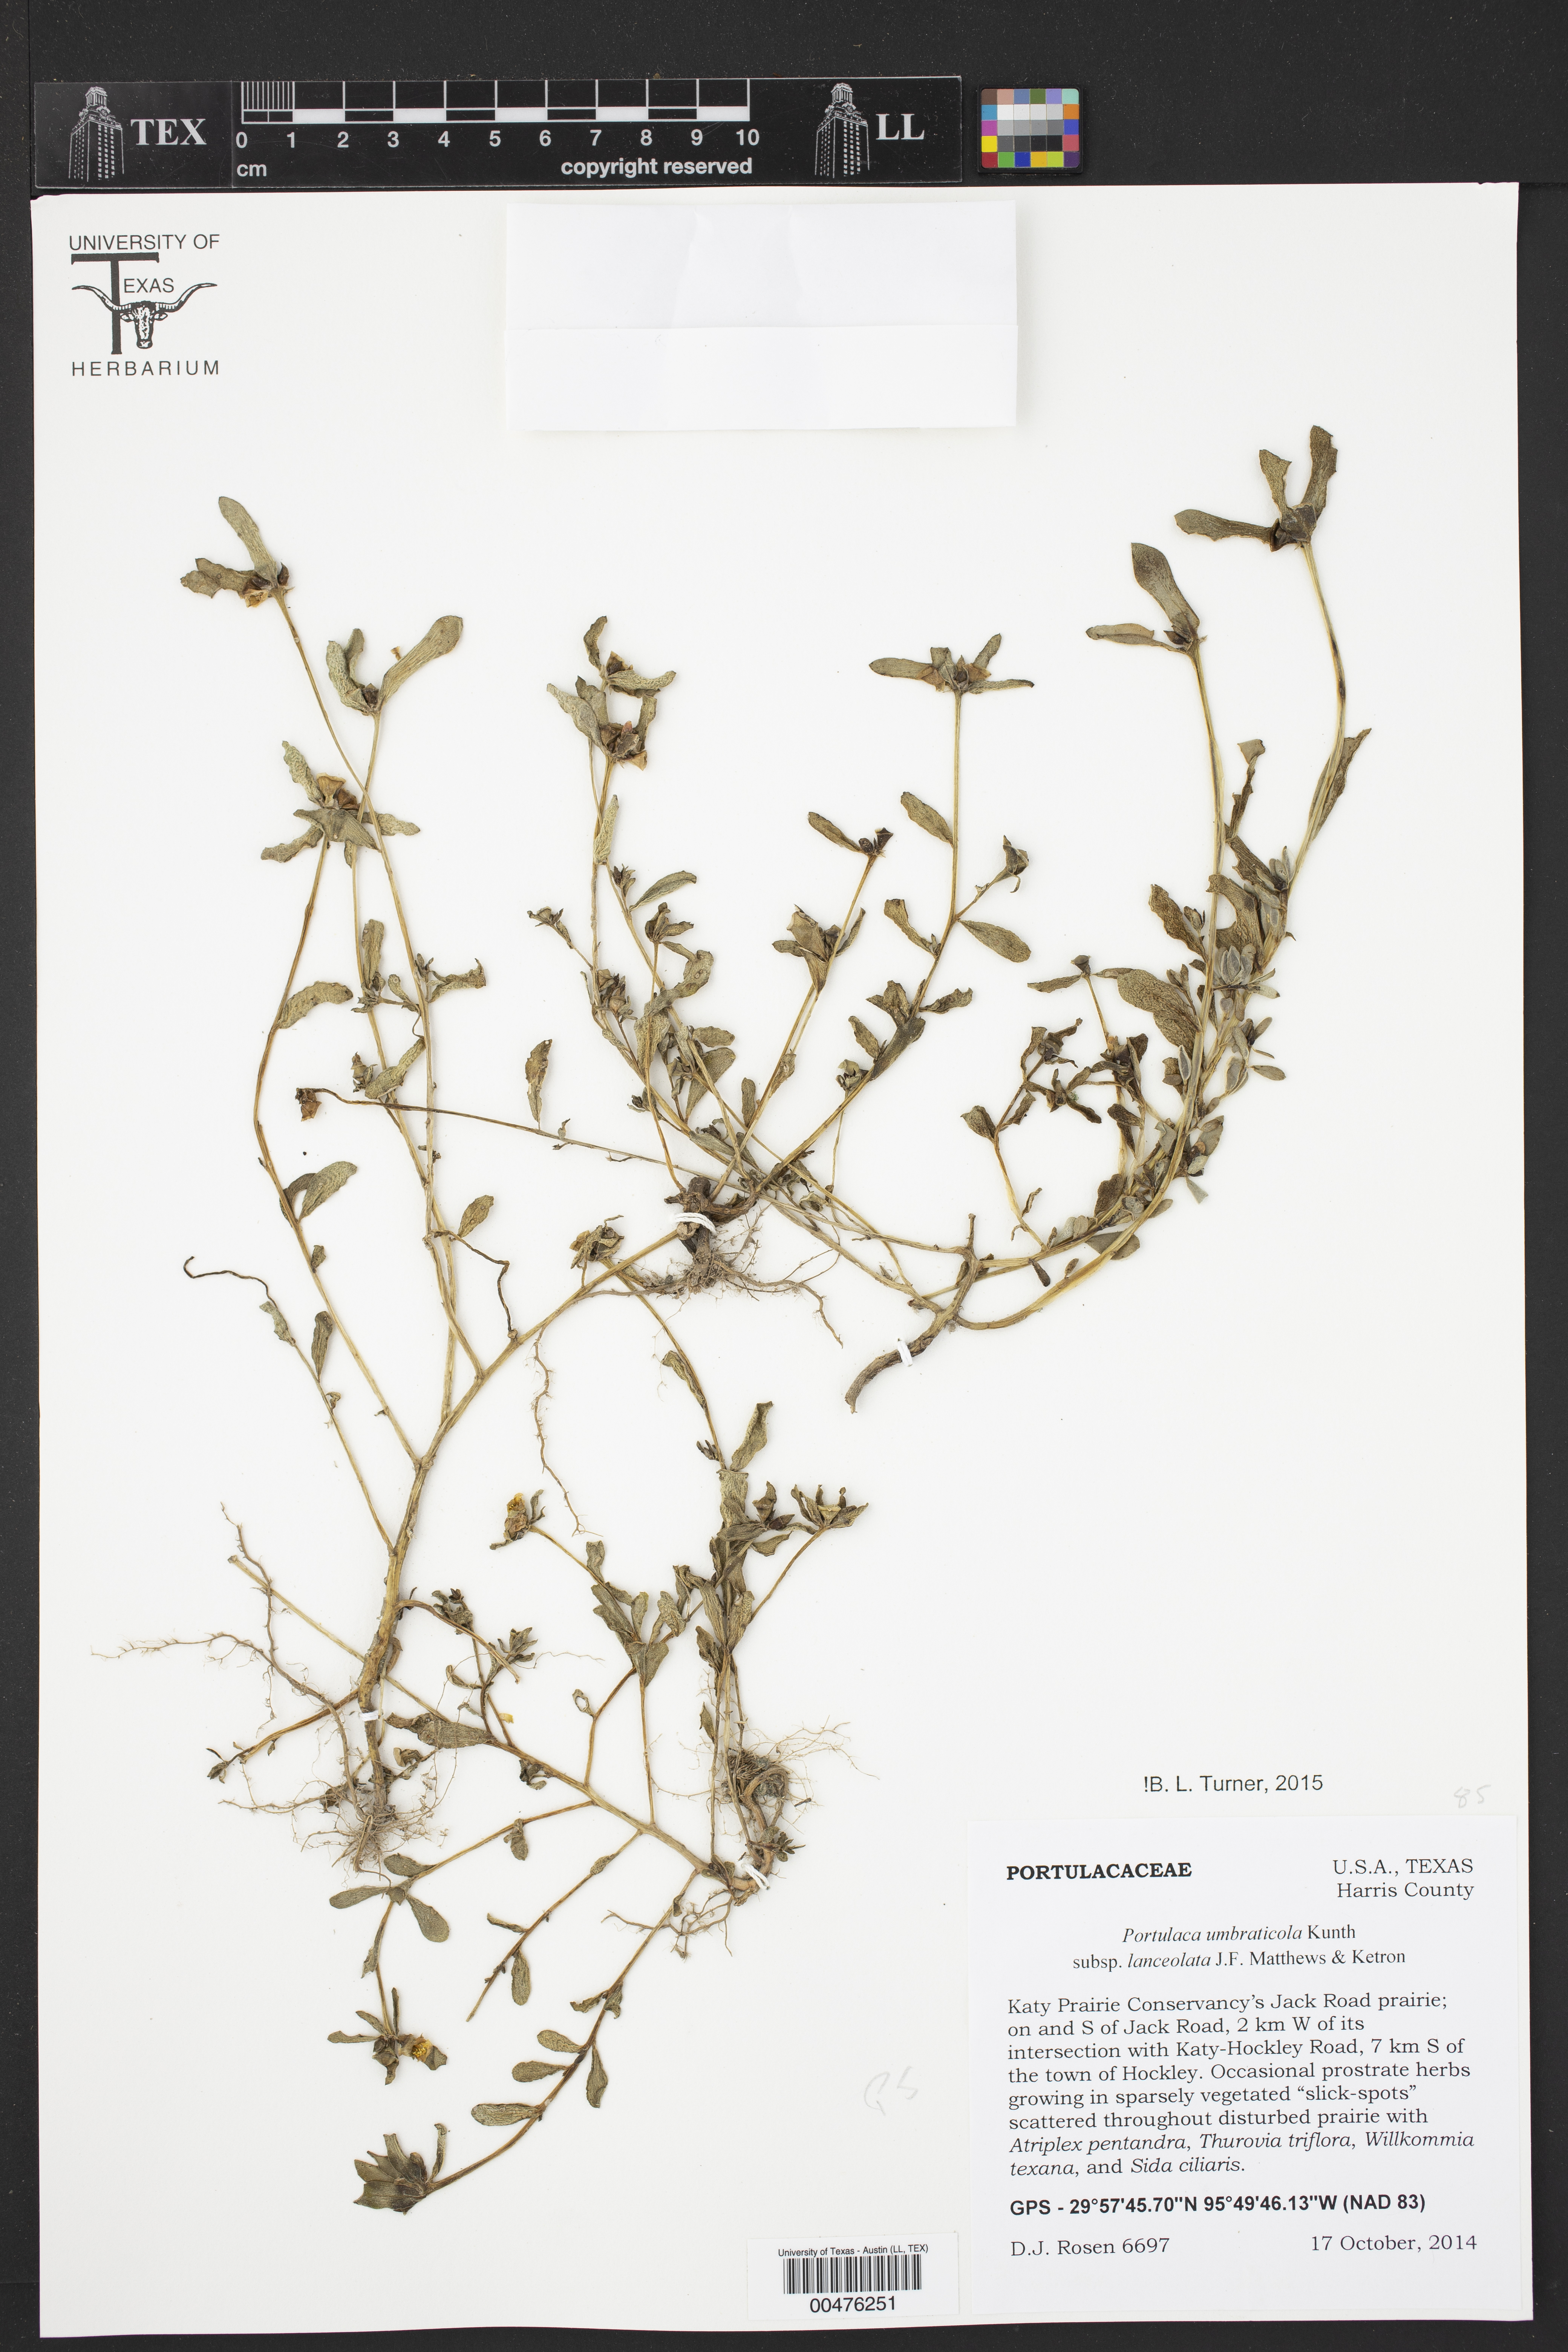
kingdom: Plantae
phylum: Tracheophyta
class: Magnoliopsida
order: Caryophyllales
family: Portulacaceae
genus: Portulaca
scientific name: Portulaca umbraticola
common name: Wingpod purslane
